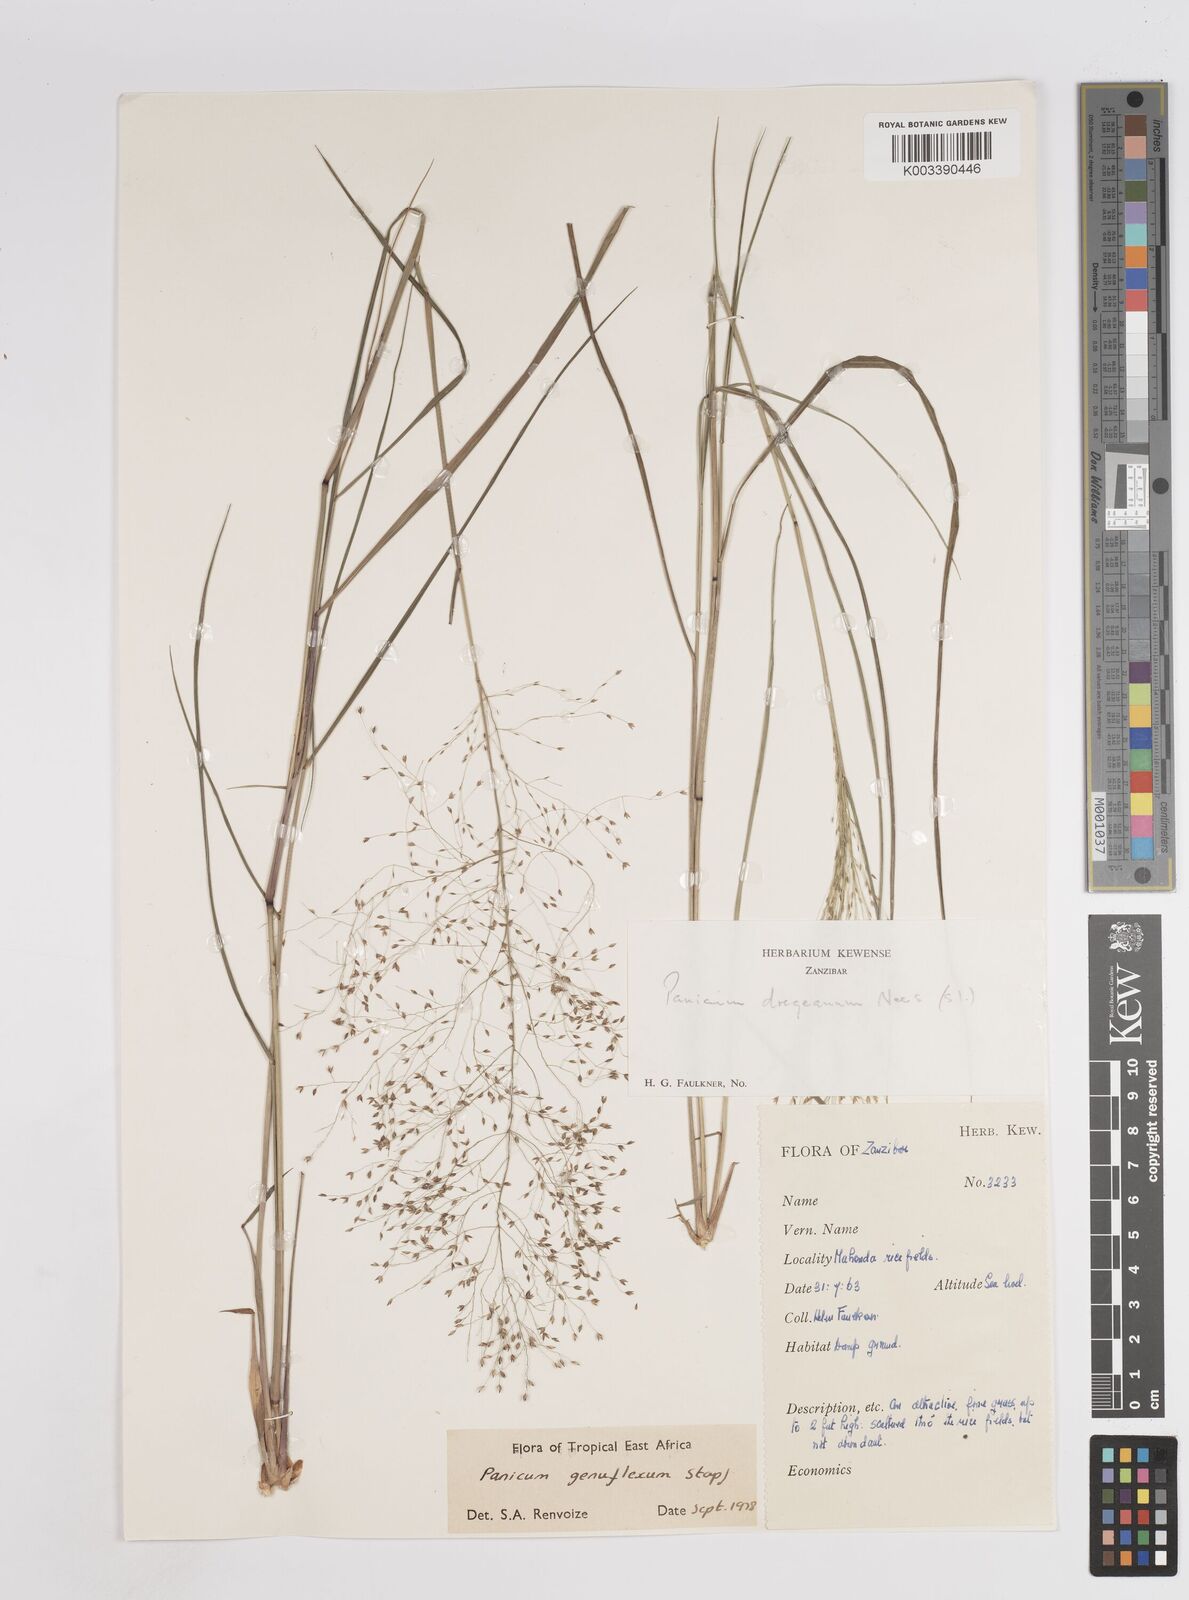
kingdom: Plantae
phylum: Tracheophyta
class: Liliopsida
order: Poales
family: Poaceae
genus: Panicum
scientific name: Panicum genuflexum
